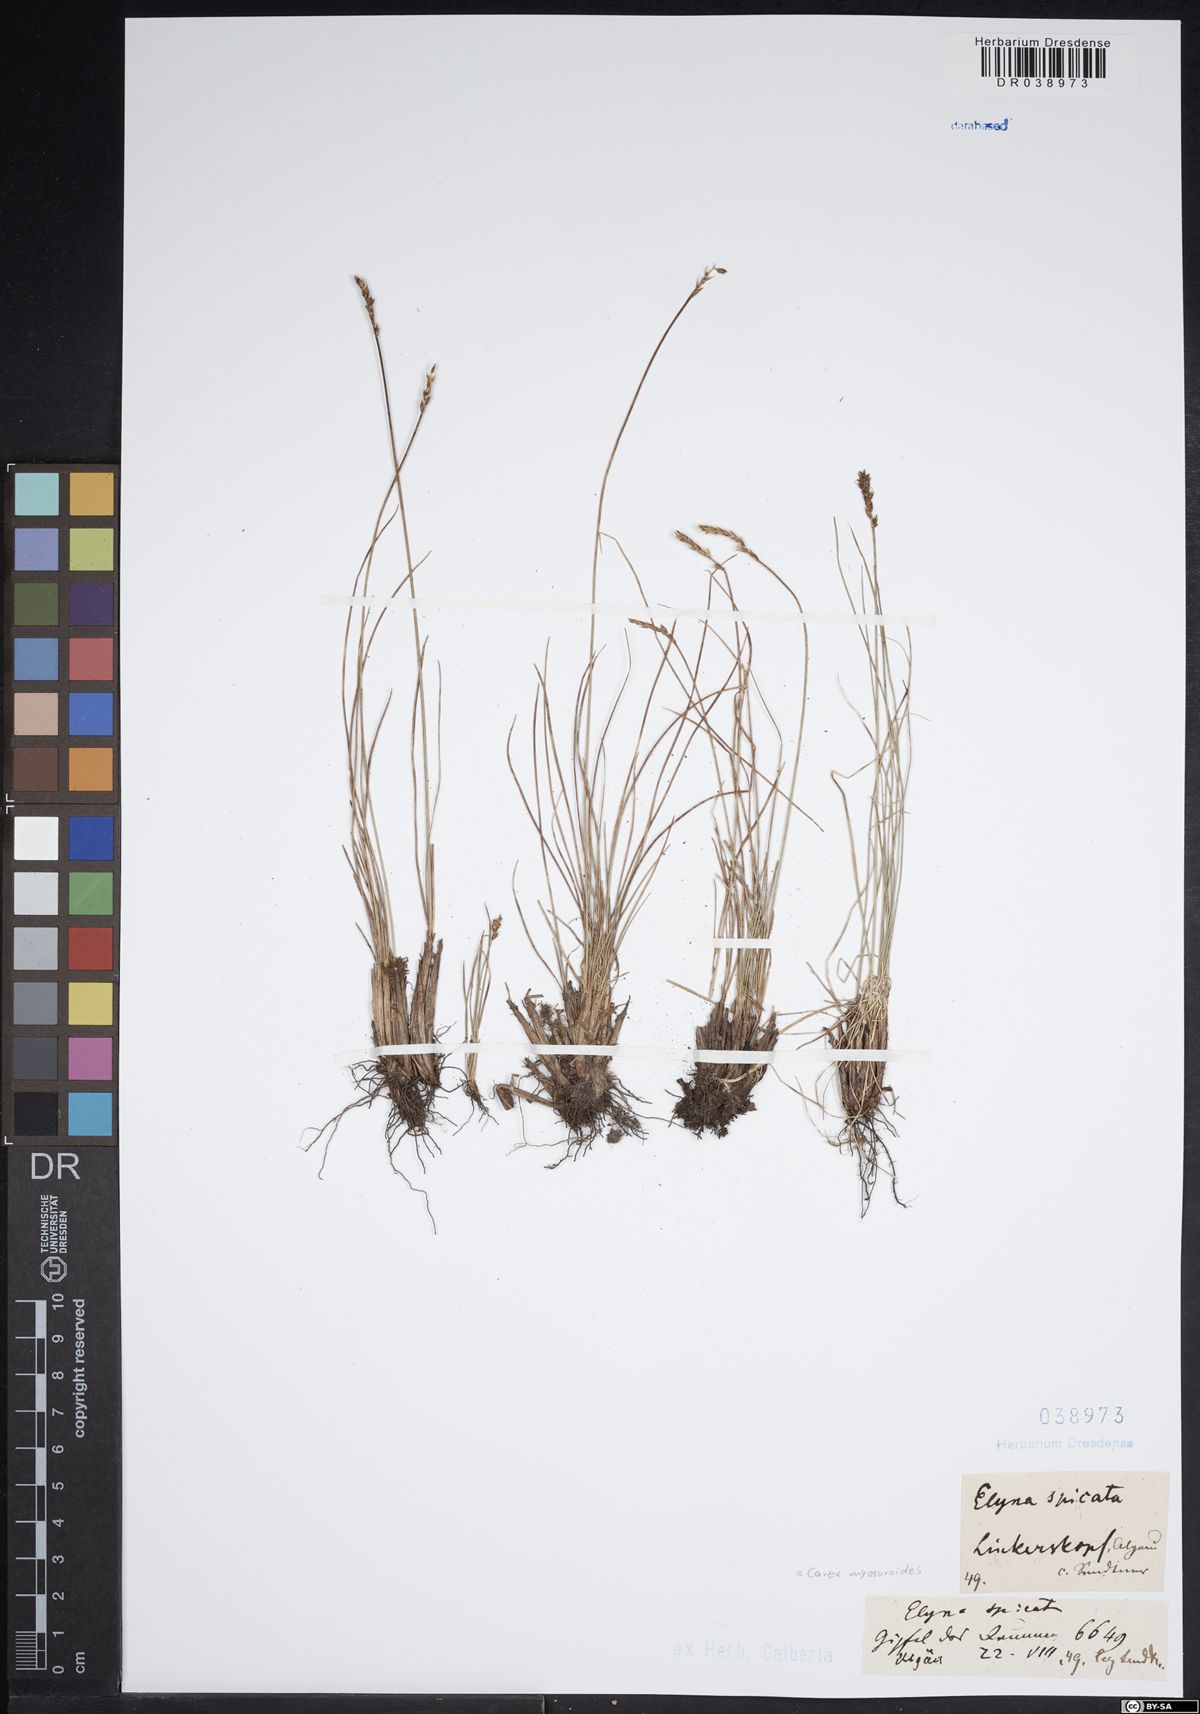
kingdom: Plantae
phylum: Tracheophyta
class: Liliopsida
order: Poales
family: Cyperaceae
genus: Carex
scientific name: Carex myosuroides
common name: Bellard's bog sedge
